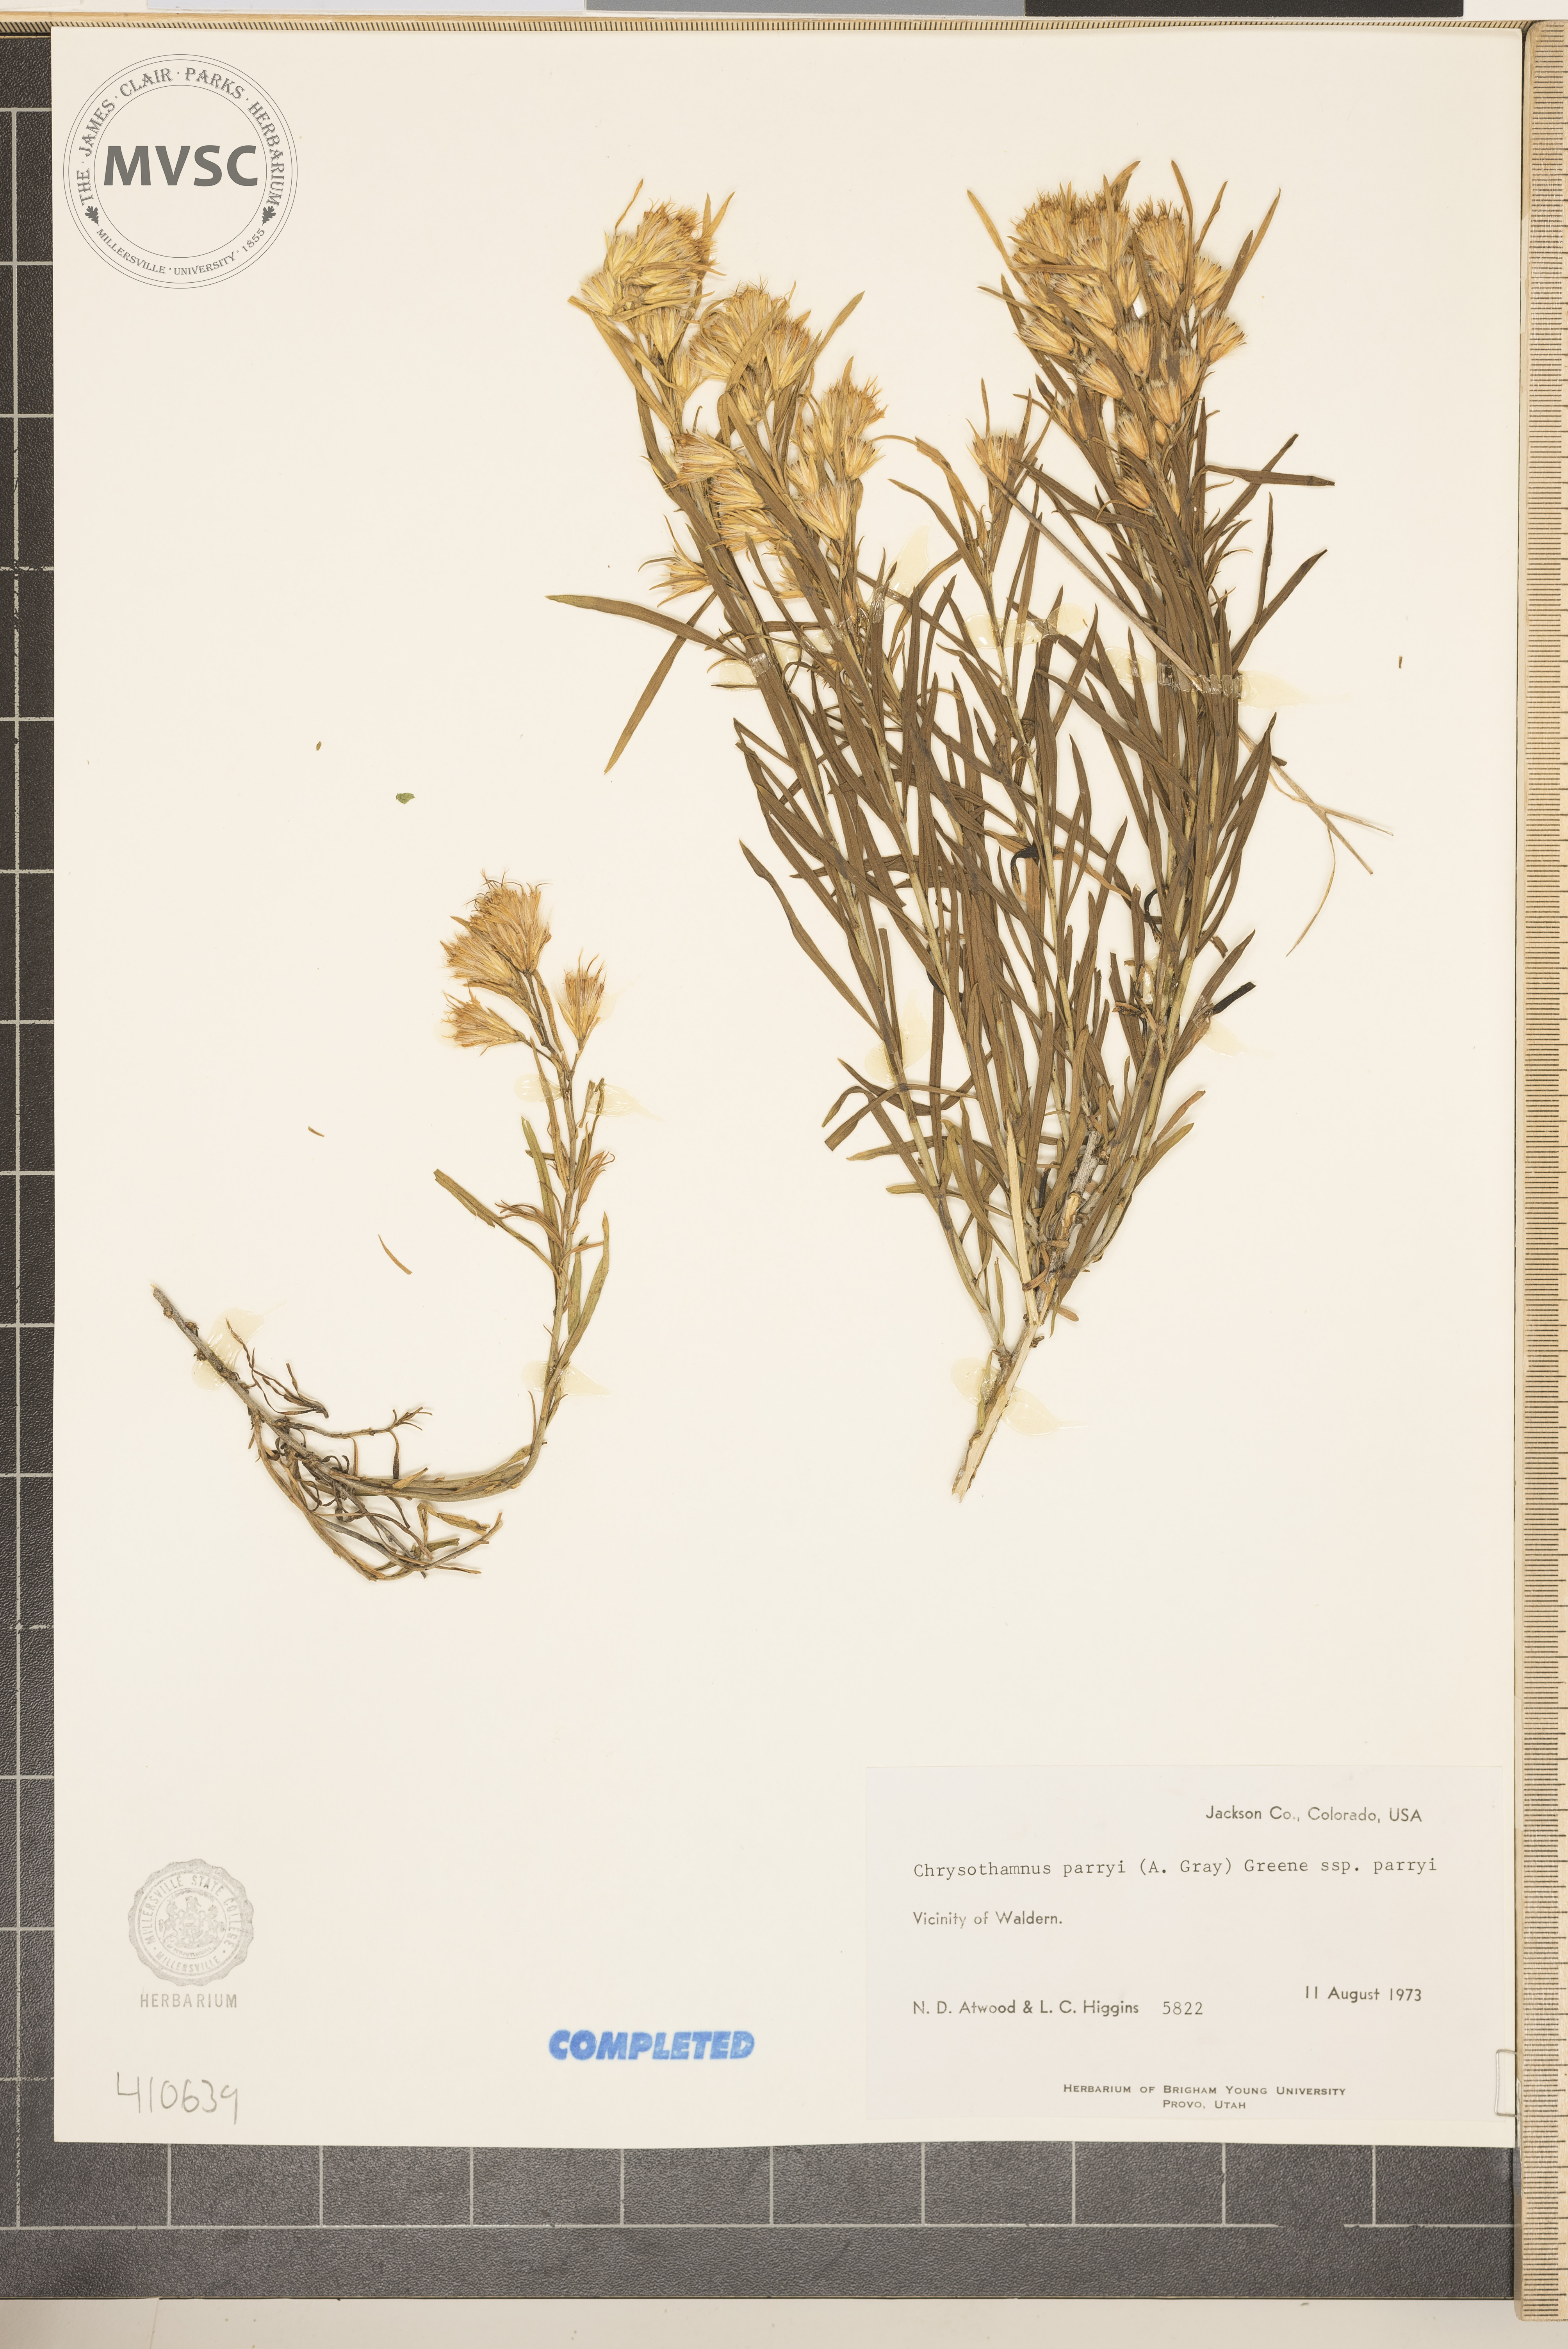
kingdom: Plantae
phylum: Tracheophyta
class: Magnoliopsida
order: Asterales
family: Asteraceae
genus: Ericameria
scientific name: Ericameria parryi
